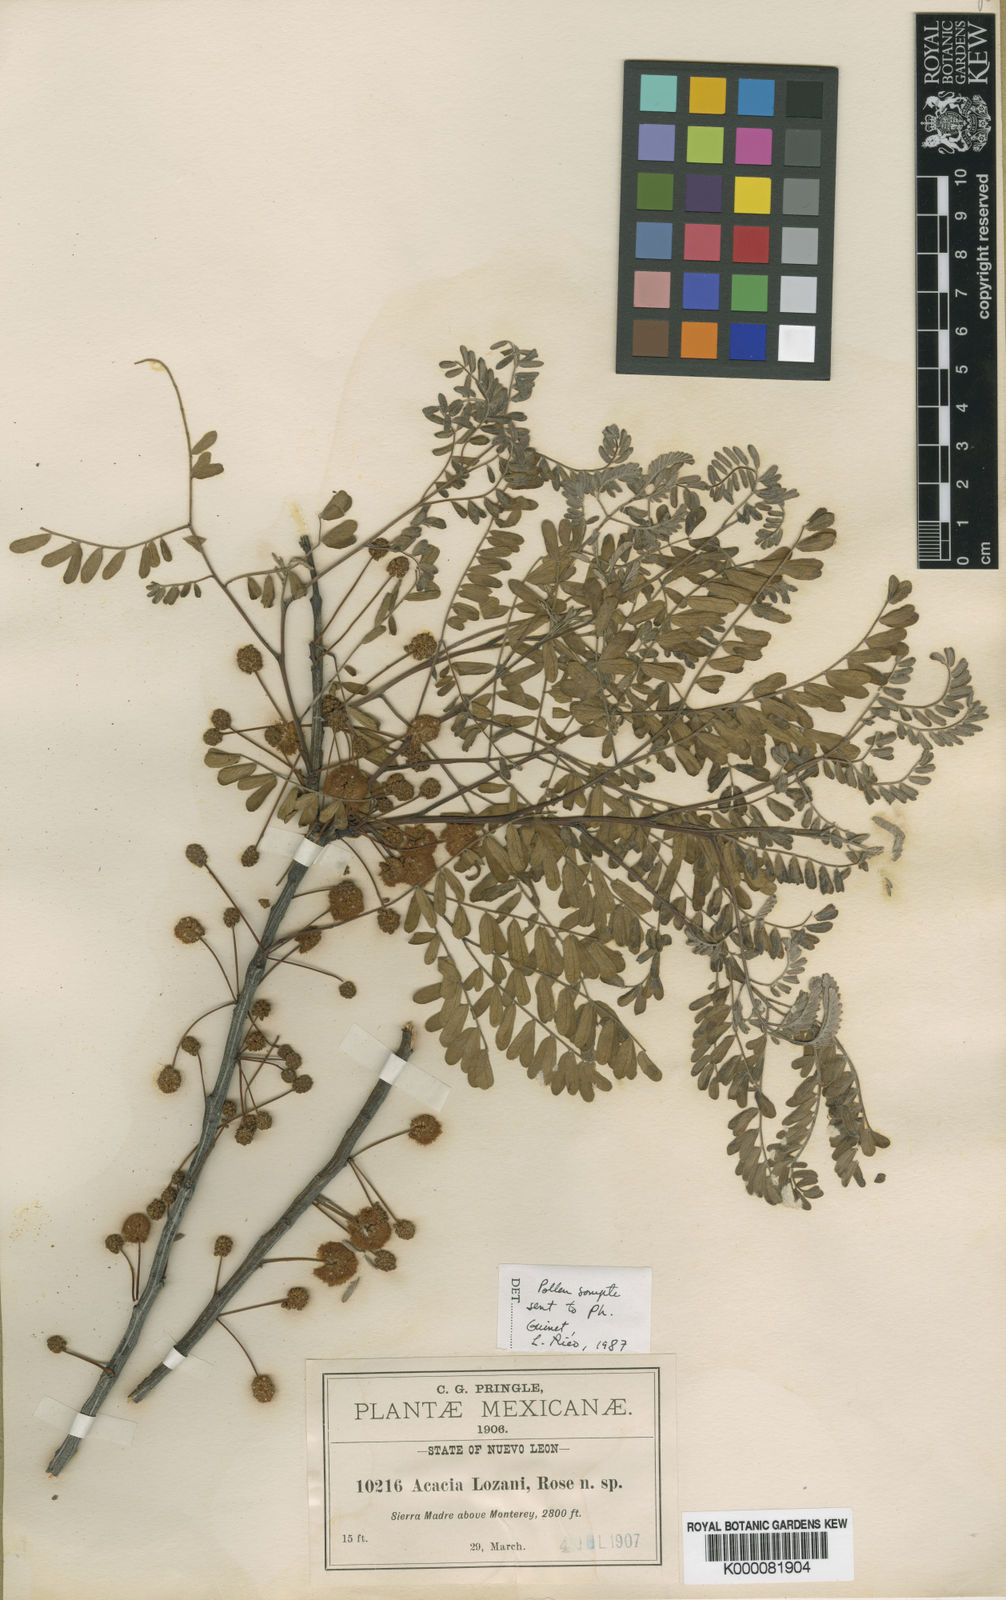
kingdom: Plantae
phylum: Tracheophyta
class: Magnoliopsida
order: Fabales
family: Fabaceae
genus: Acacia
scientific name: Acacia
